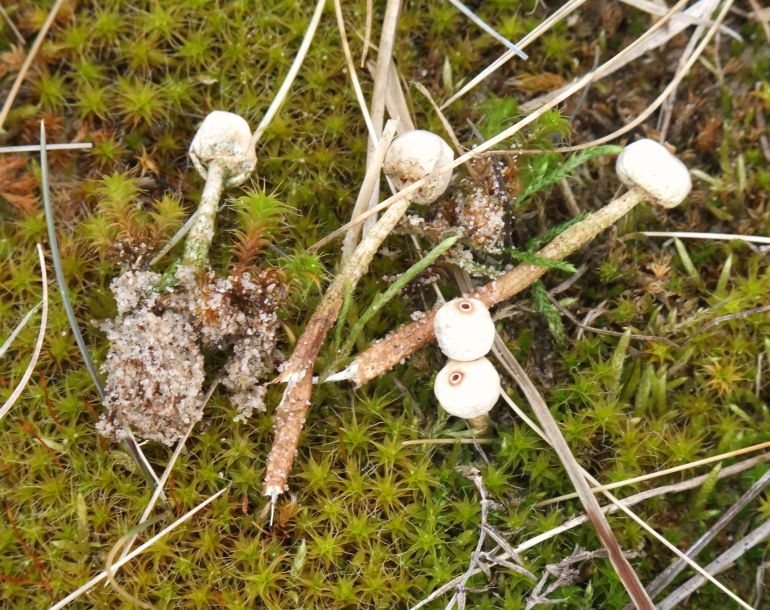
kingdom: Fungi
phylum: Basidiomycota
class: Agaricomycetes
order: Agaricales
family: Agaricaceae
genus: Tulostoma
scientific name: Tulostoma brumale
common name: vinter-stilkbovist
